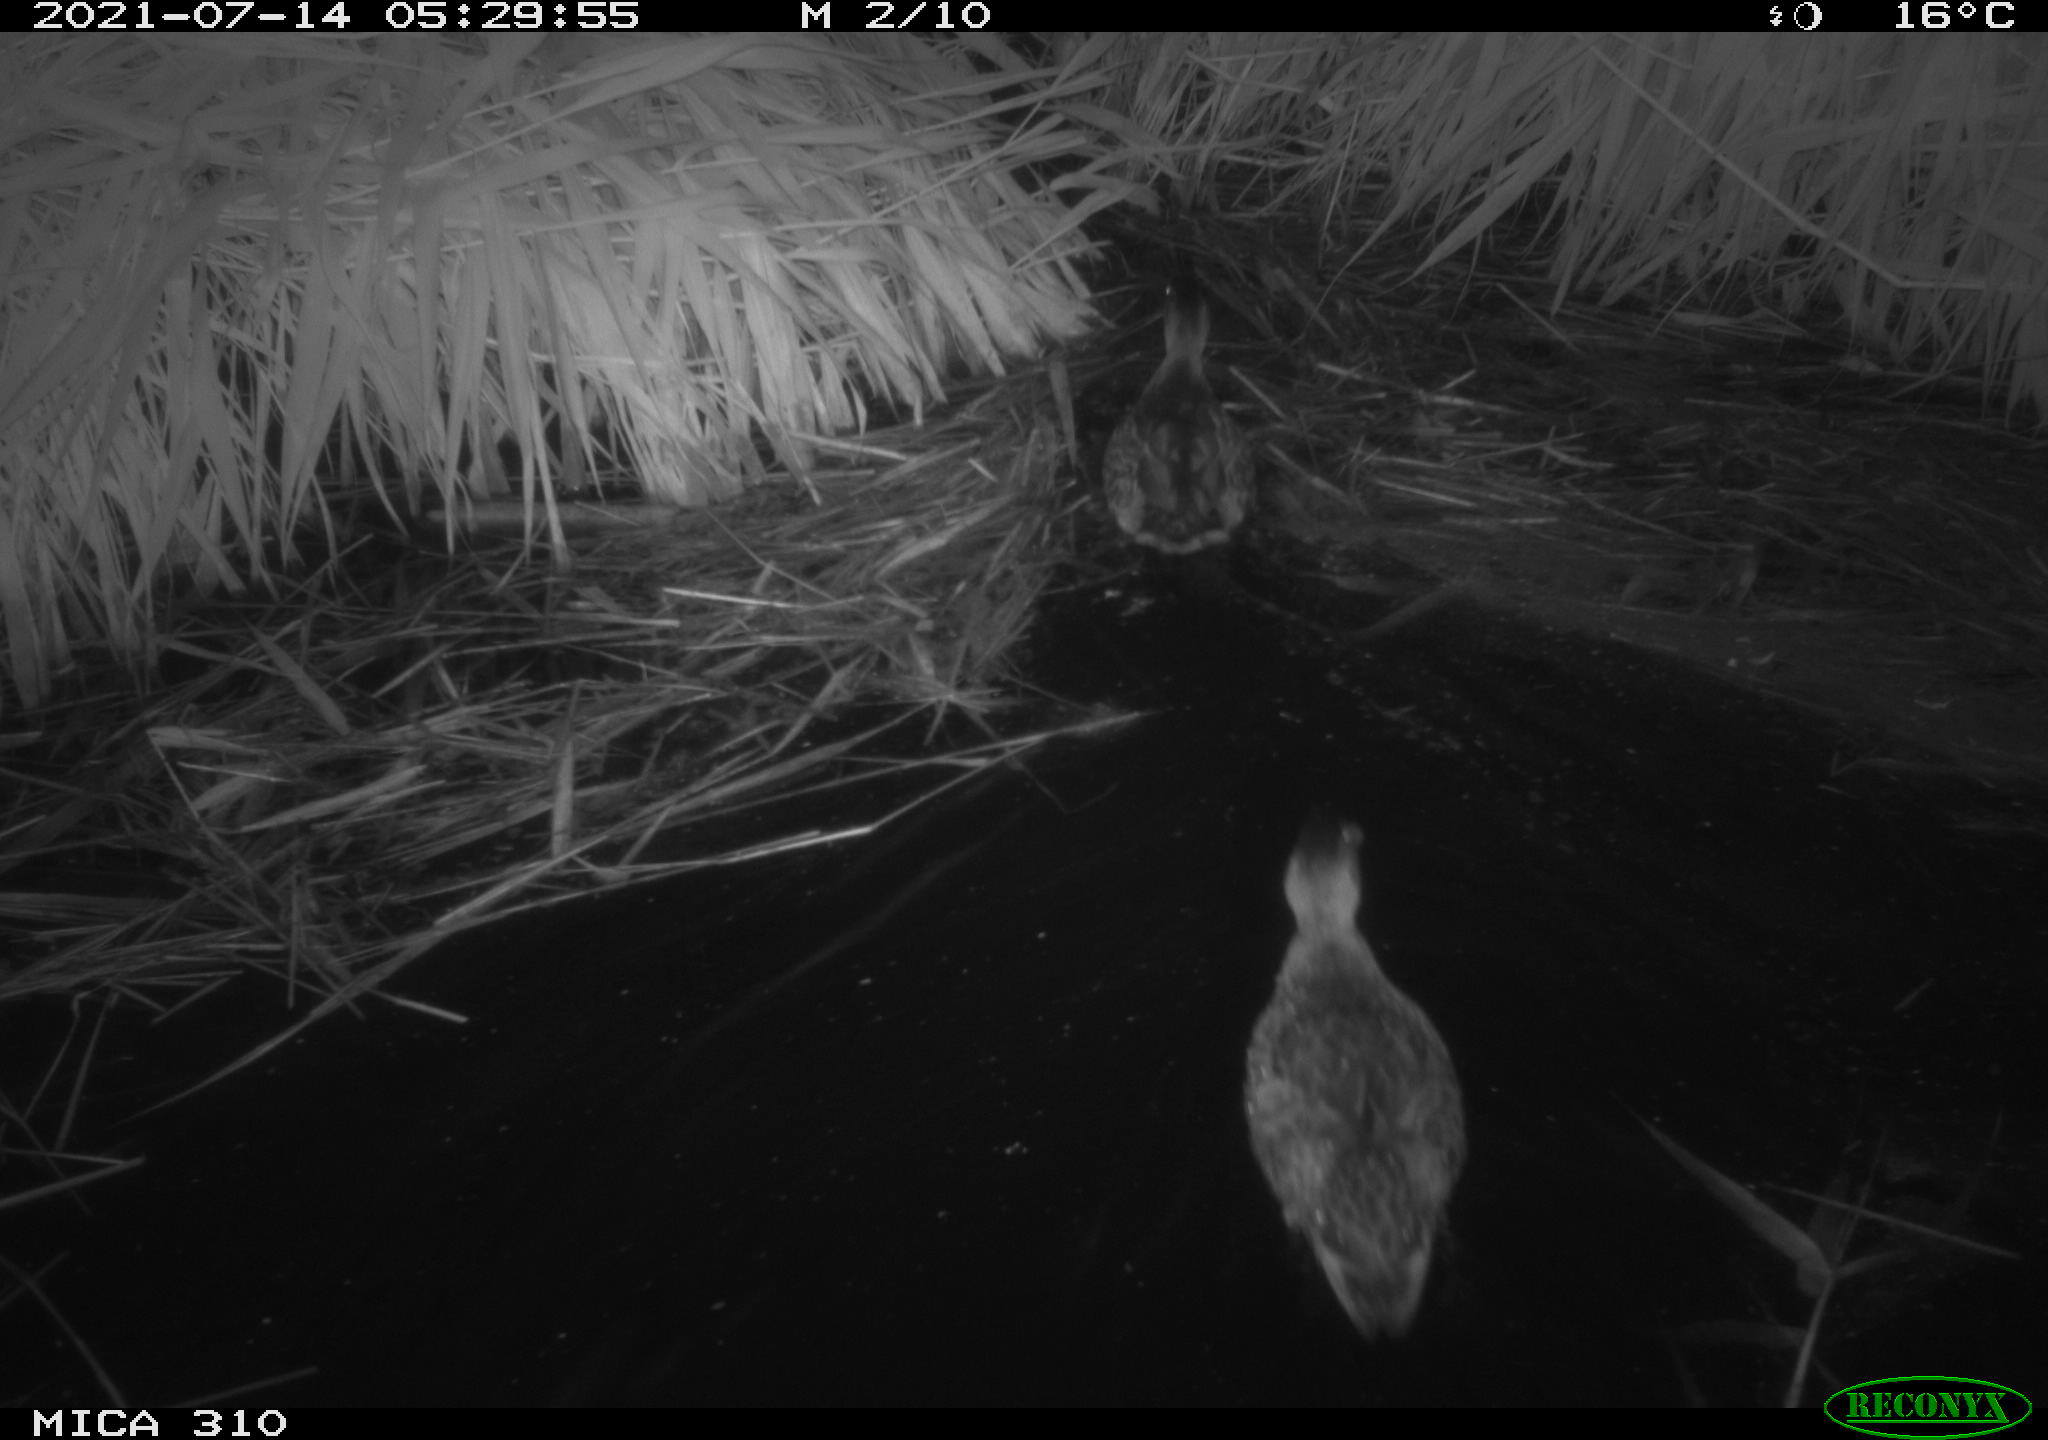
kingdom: Animalia
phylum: Chordata
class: Aves
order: Anseriformes
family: Anatidae
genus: Anas
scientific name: Anas platyrhynchos
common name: Mallard
